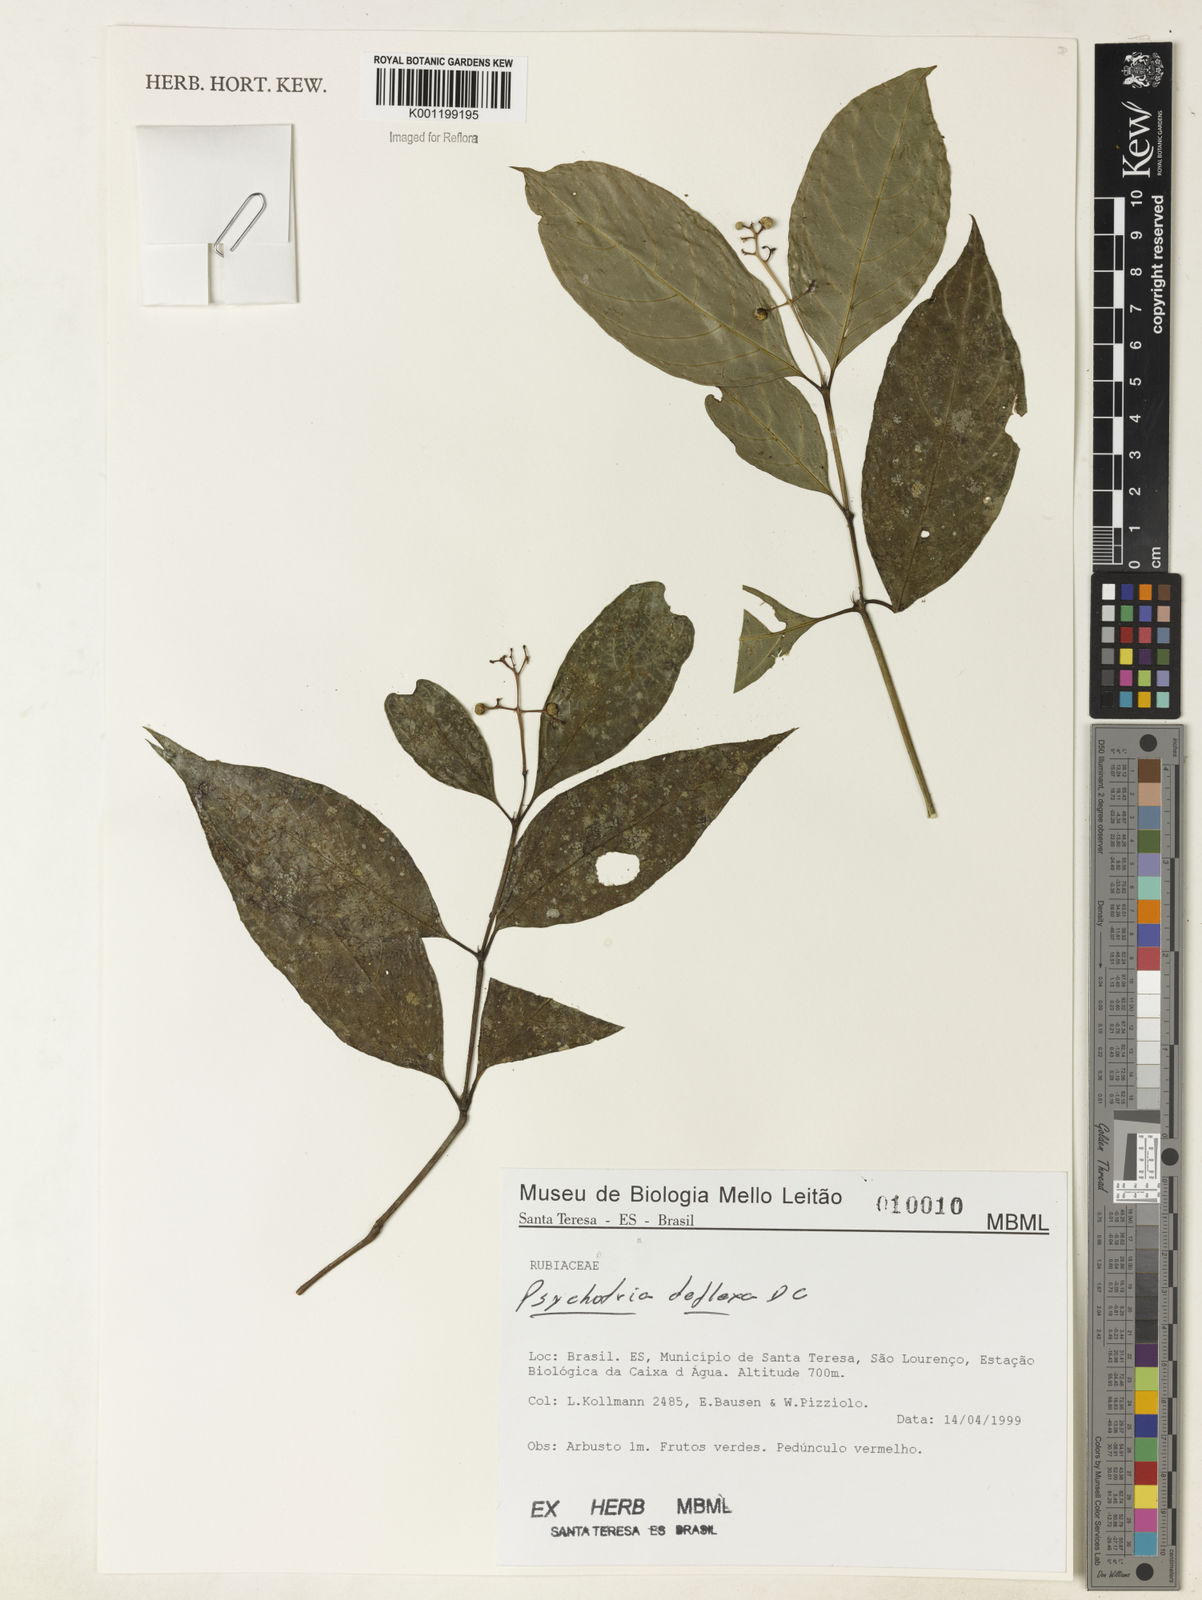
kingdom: Plantae
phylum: Tracheophyta
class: Magnoliopsida
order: Gentianales
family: Rubiaceae
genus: Palicourea
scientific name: Palicourea deflexa
